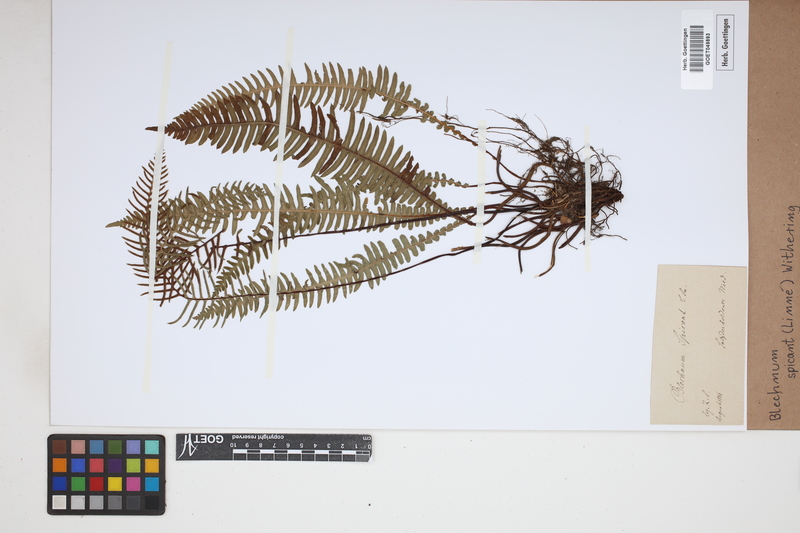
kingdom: Plantae
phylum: Tracheophyta
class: Polypodiopsida
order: Polypodiales
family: Blechnaceae
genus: Struthiopteris
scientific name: Struthiopteris spicant
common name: Deer fern
